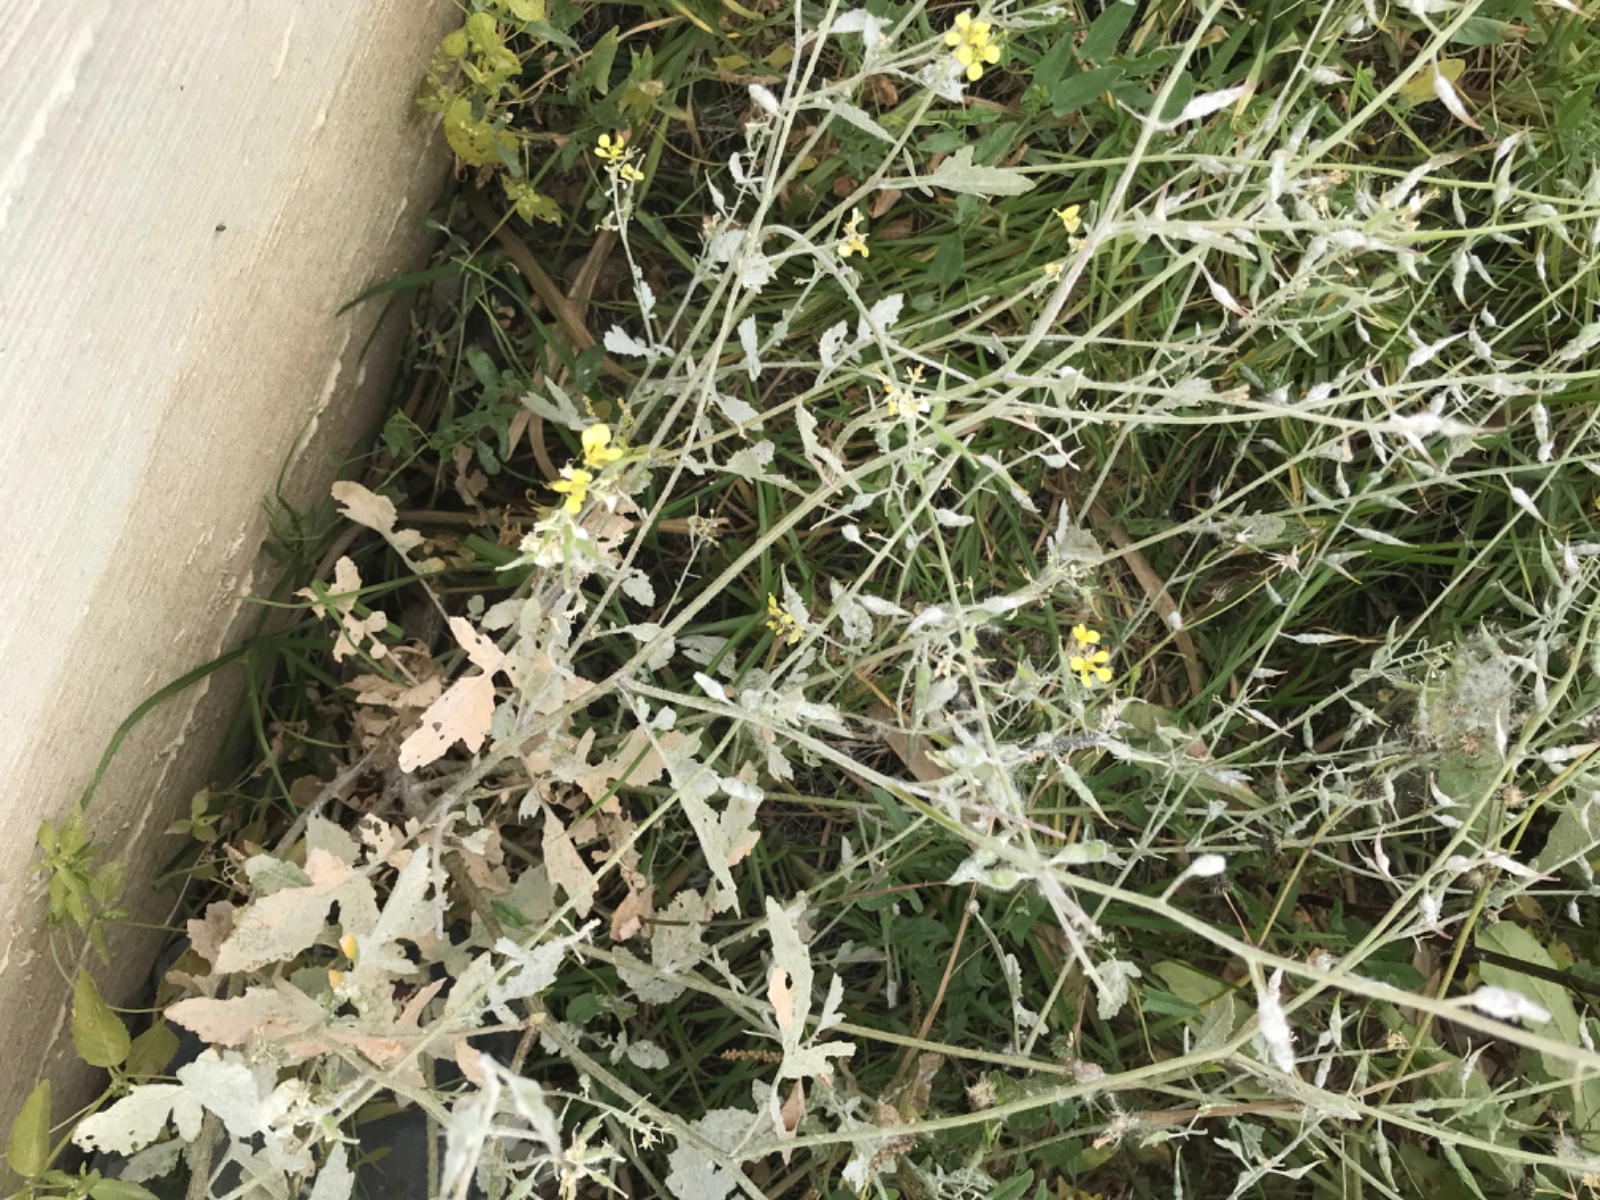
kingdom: Fungi
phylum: Ascomycota
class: Leotiomycetes
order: Helotiales
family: Erysiphaceae
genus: Erysiphe
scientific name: Erysiphe cruciferarum
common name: korsblomst-meldug
